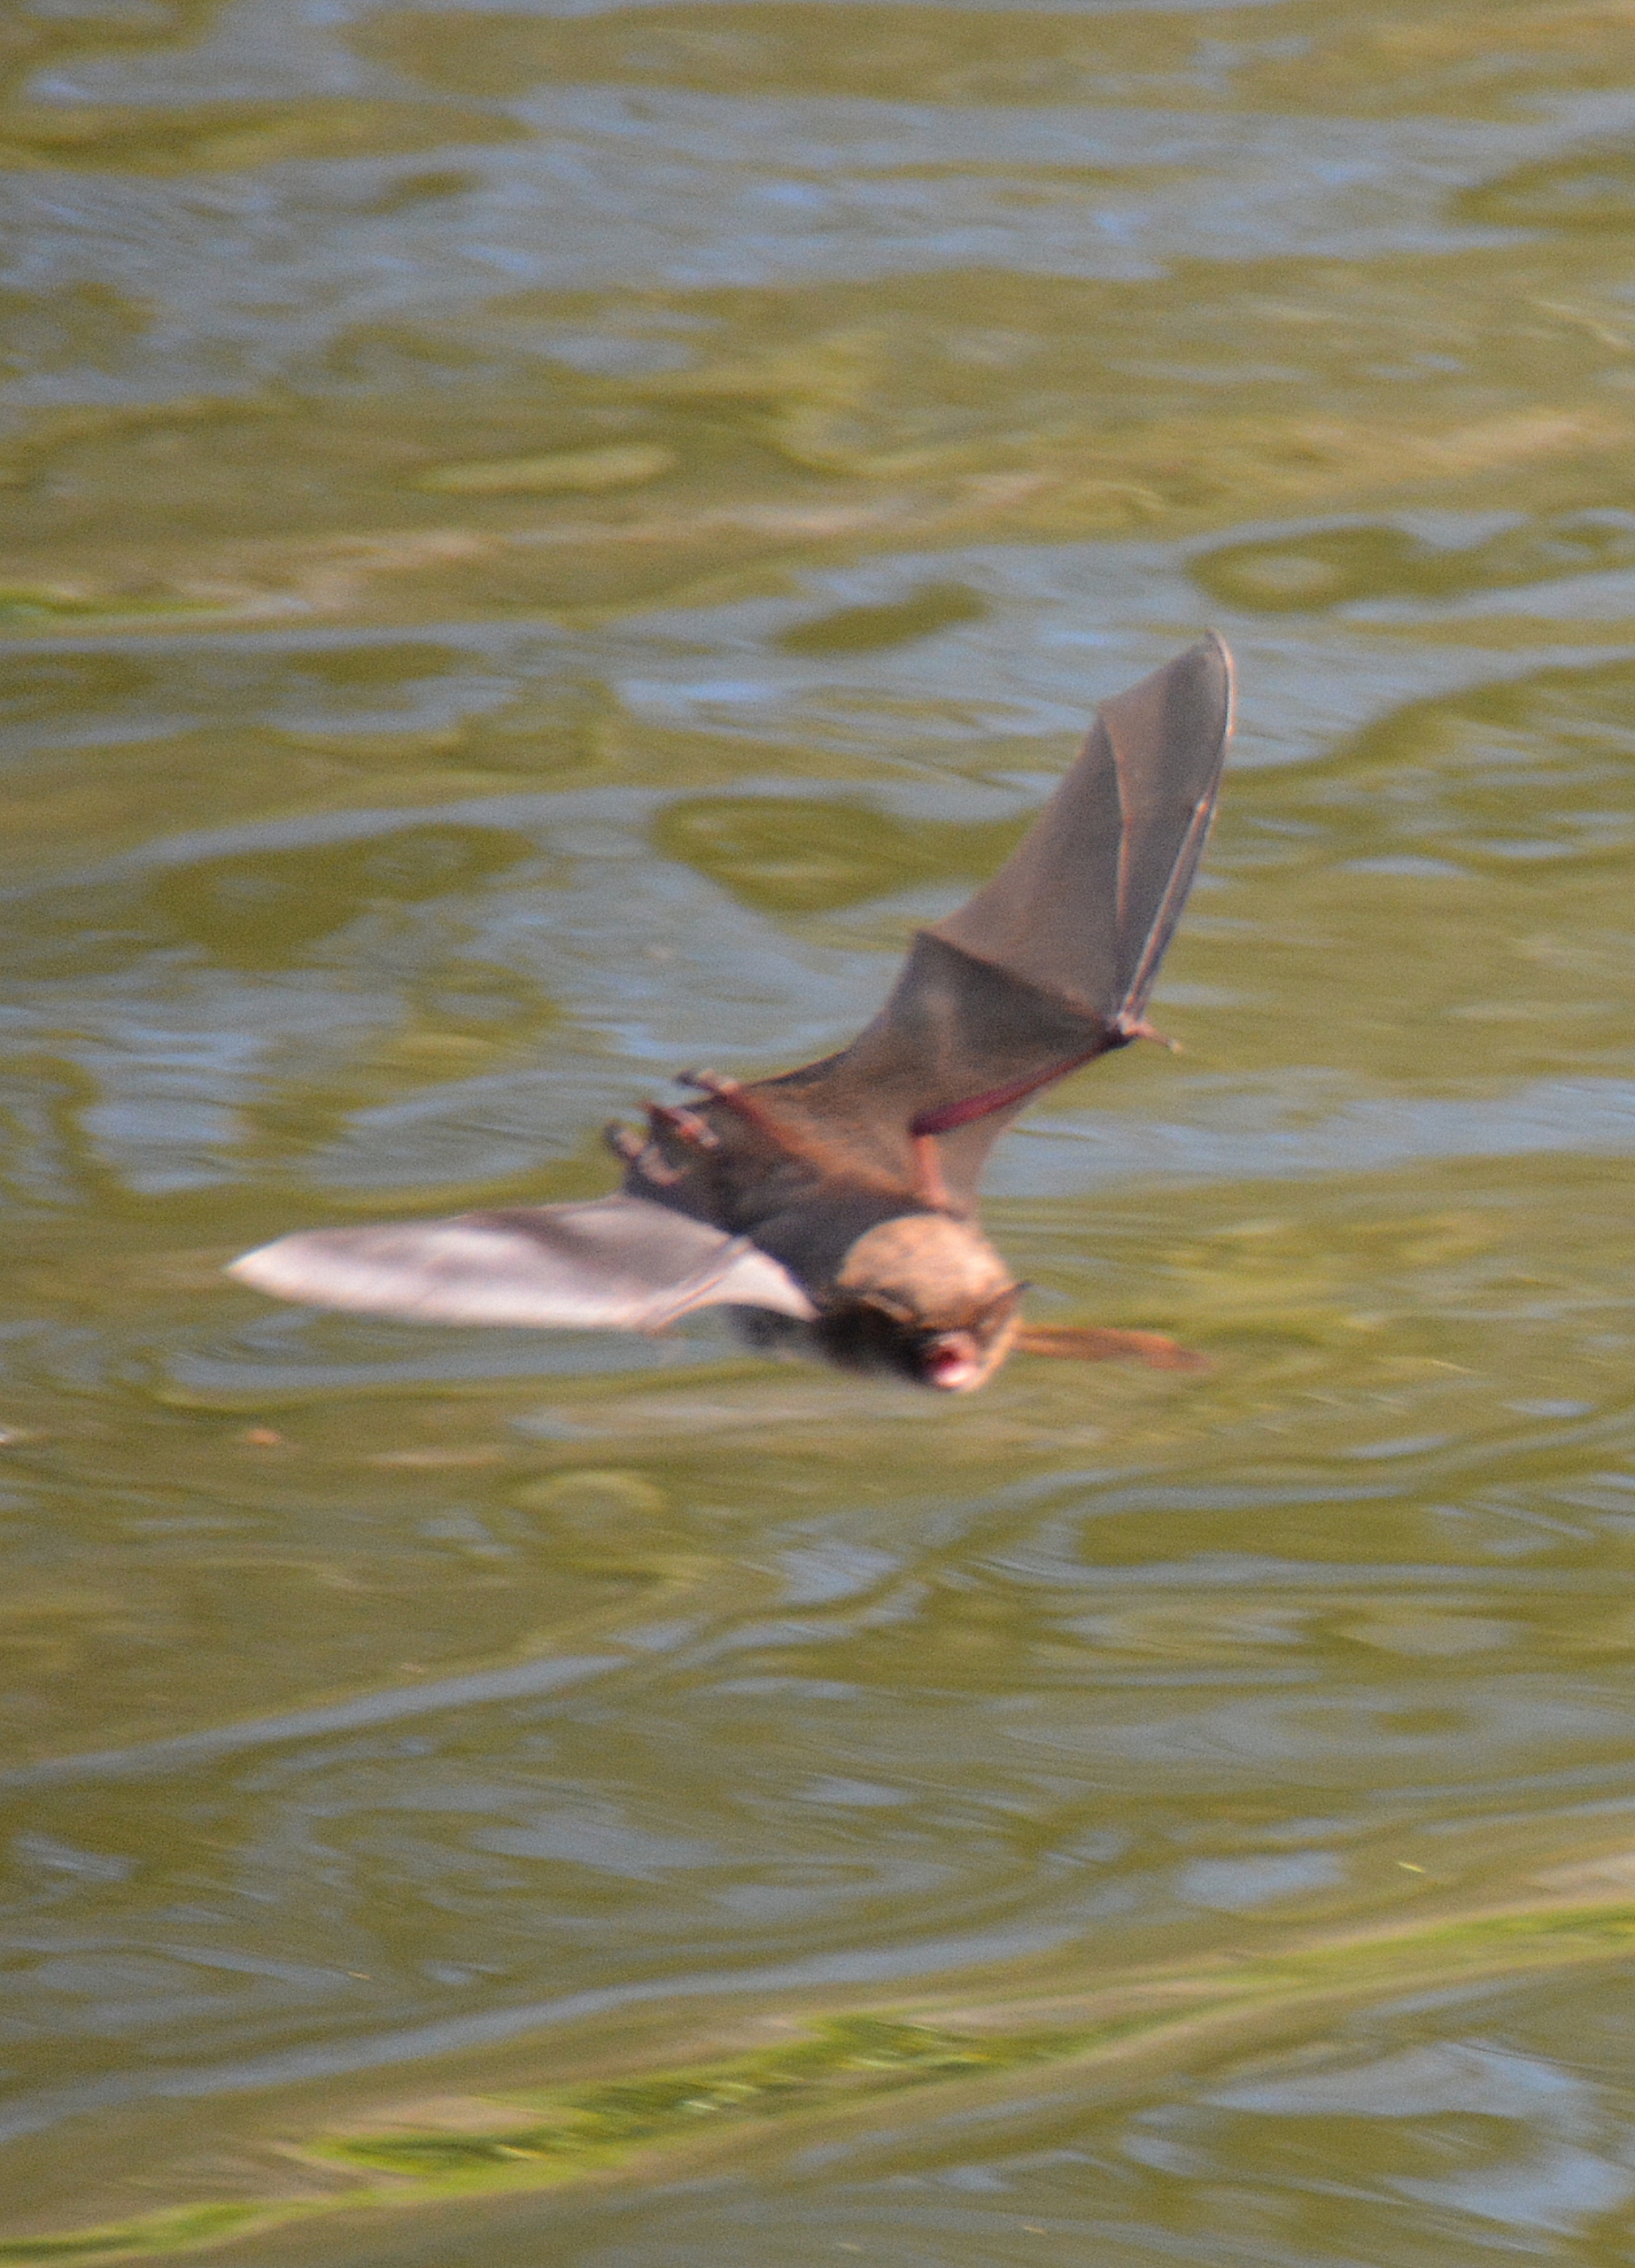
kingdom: Animalia
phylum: Chordata
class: Mammalia
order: Chiroptera
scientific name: Chiroptera
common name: Flagermus
